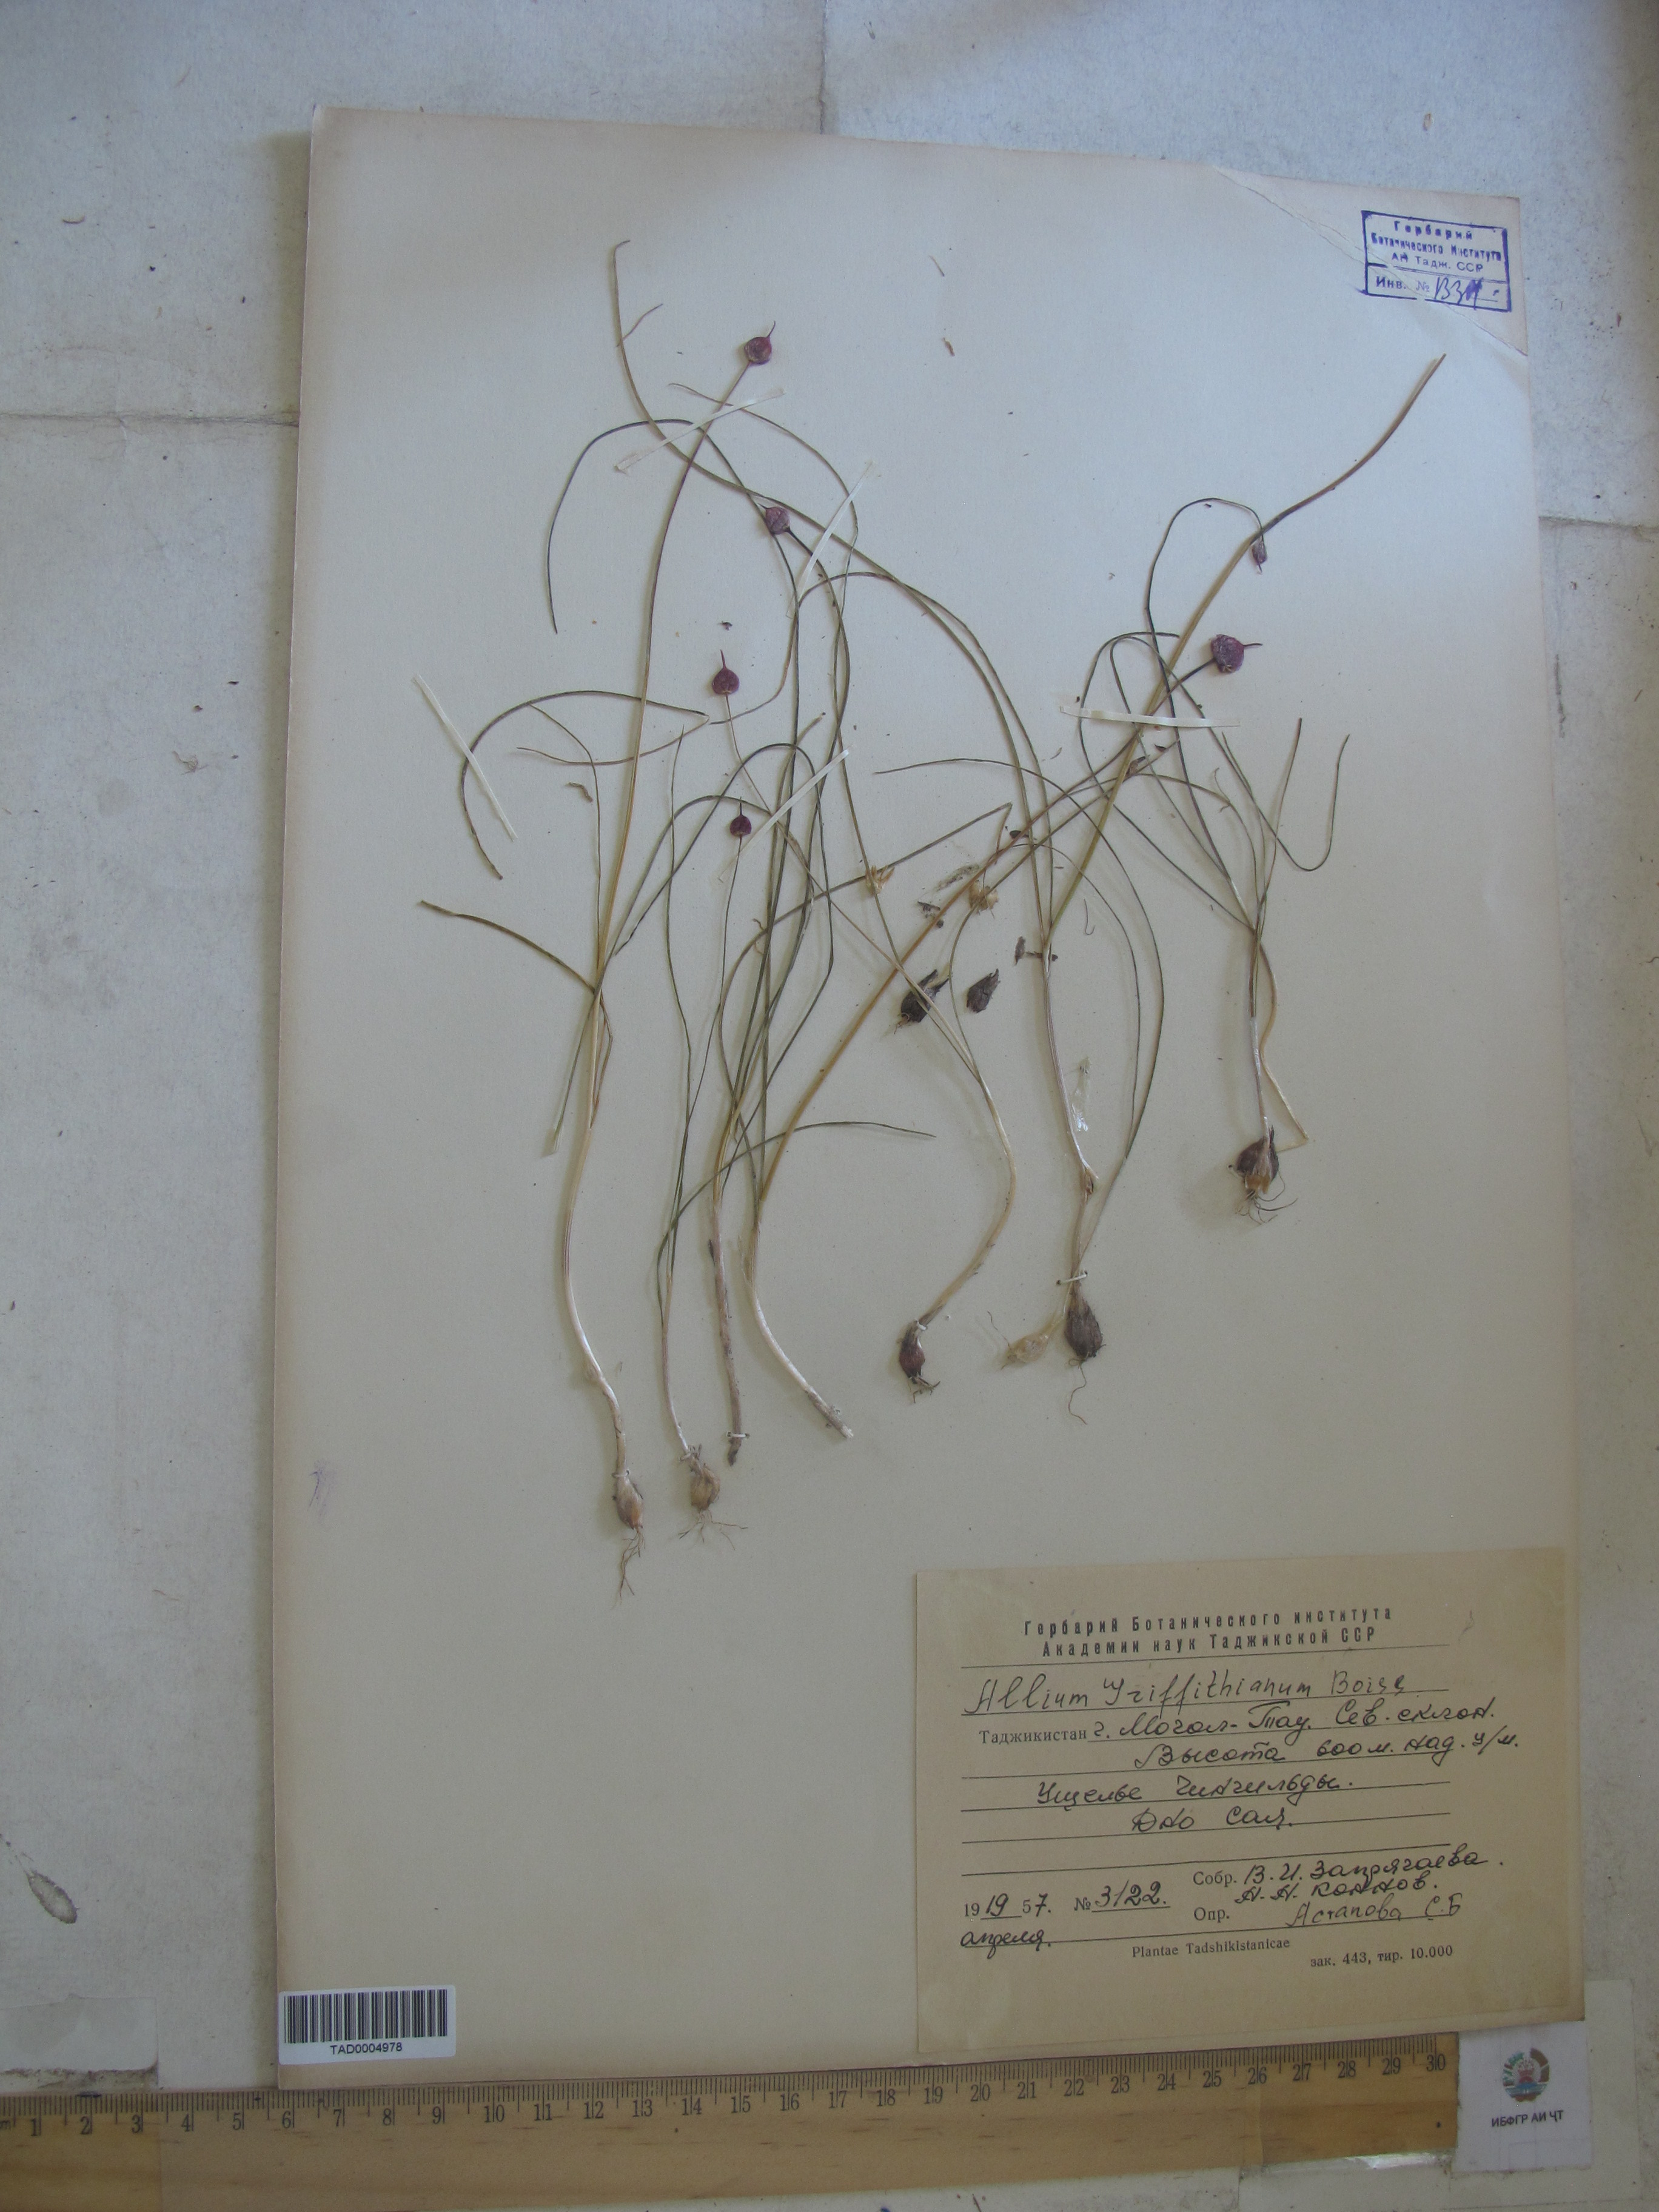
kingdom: Plantae
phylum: Tracheophyta
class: Liliopsida
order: Asparagales
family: Amaryllidaceae
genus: Allium
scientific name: Allium griffithianum
